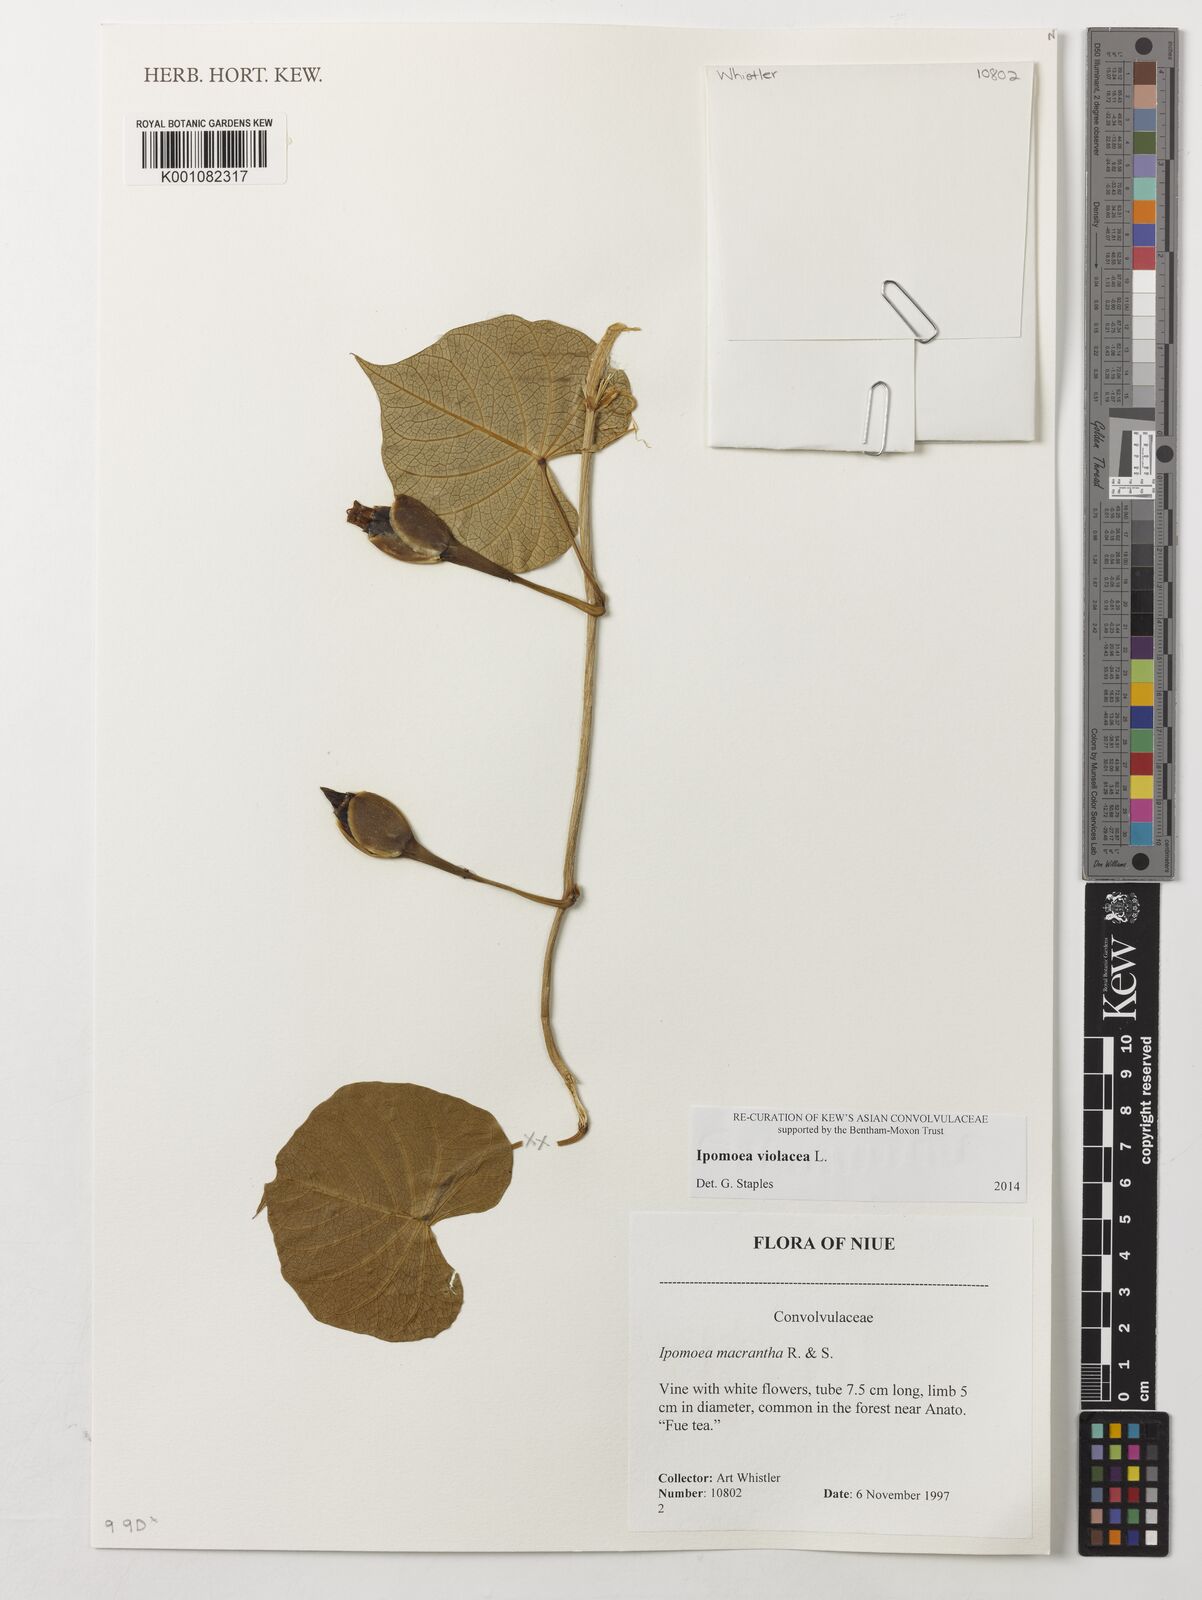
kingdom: Plantae
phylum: Tracheophyta
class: Magnoliopsida
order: Solanales
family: Convolvulaceae
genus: Ipomoea
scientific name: Ipomoea violacea
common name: Beach moonflower
